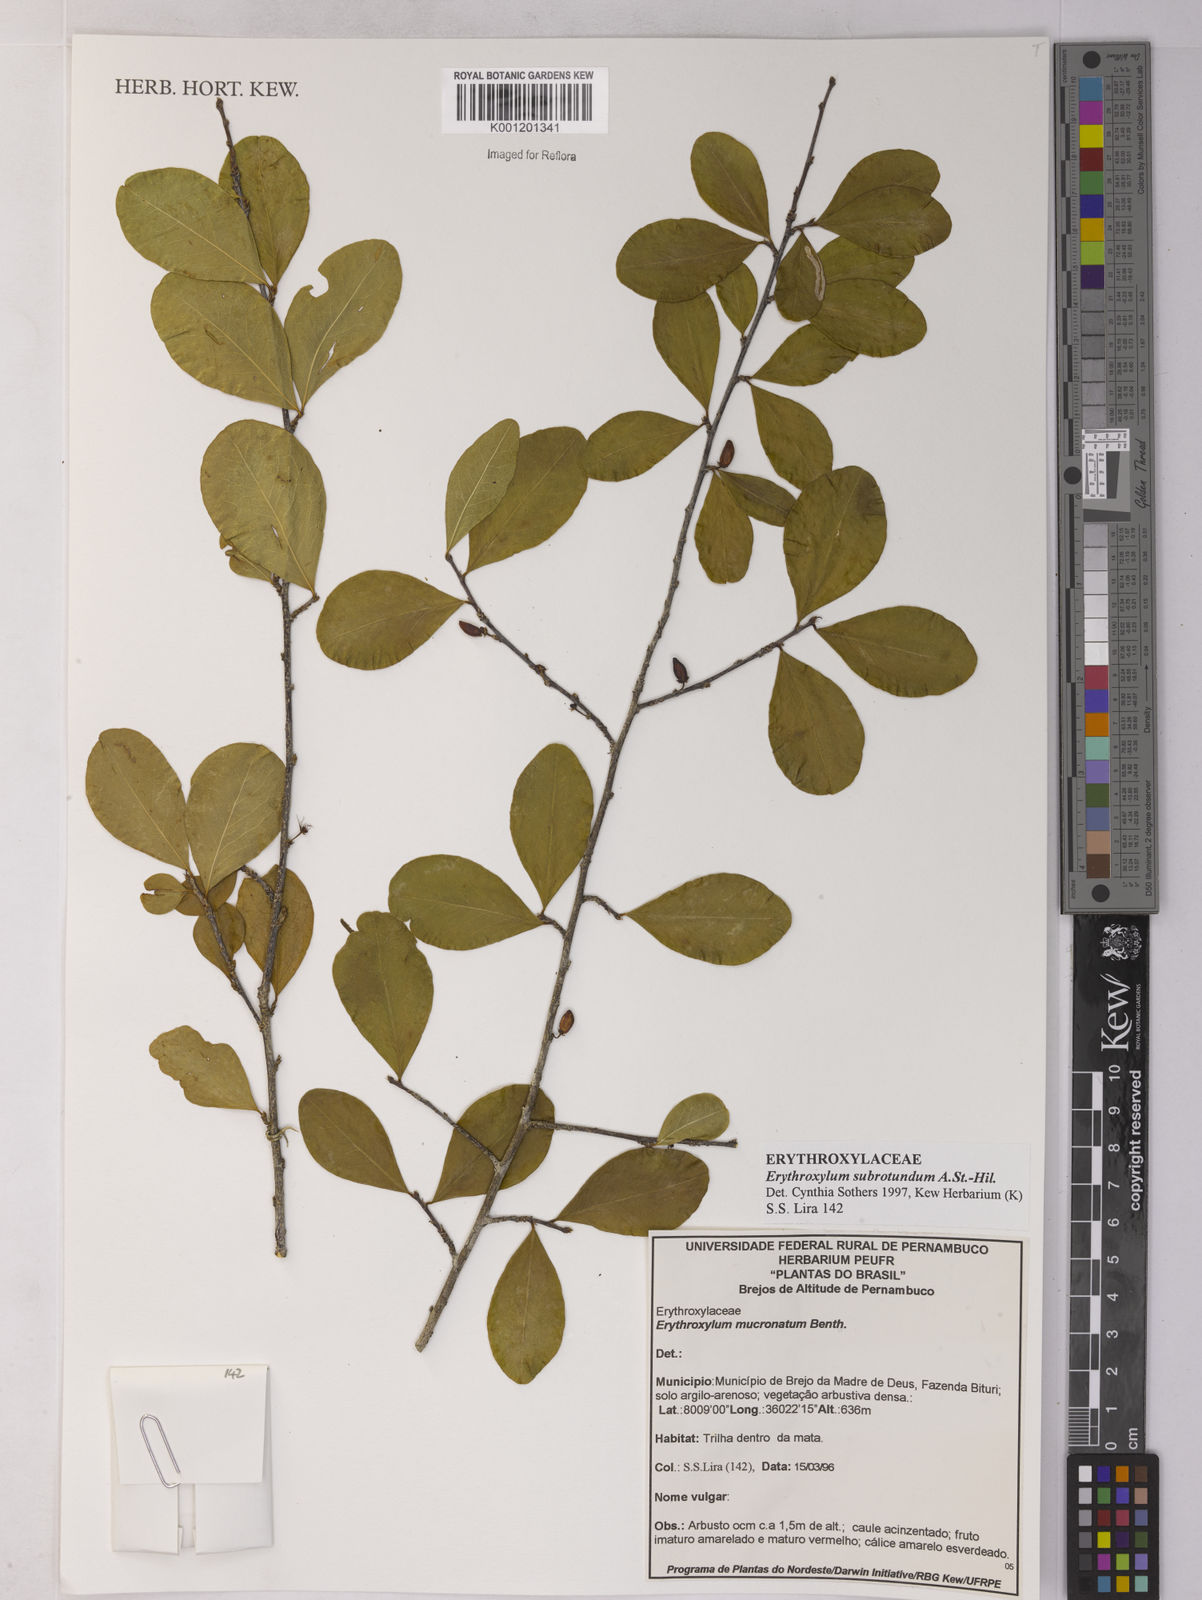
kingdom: Plantae
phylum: Tracheophyta
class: Magnoliopsida
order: Malpighiales
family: Erythroxylaceae
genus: Erythroxylum
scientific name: Erythroxylum subrotundum
